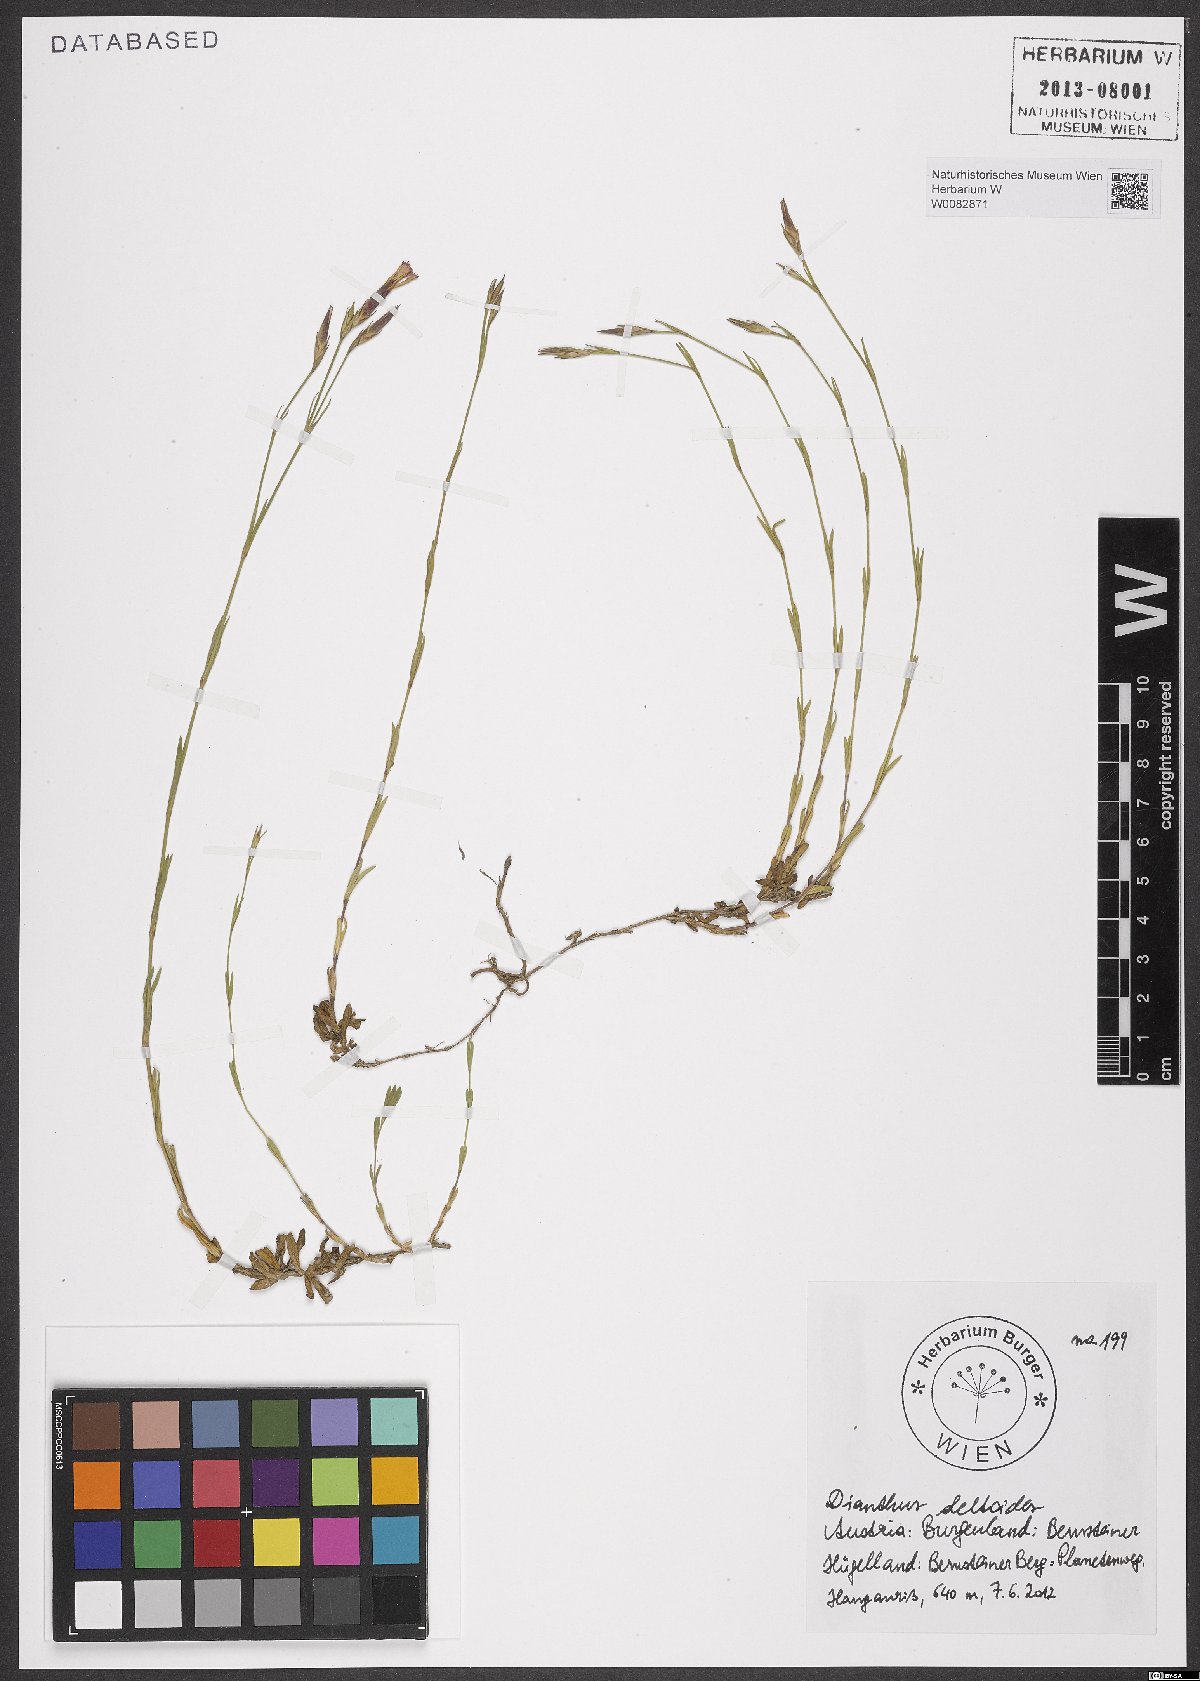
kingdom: Plantae
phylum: Tracheophyta
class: Magnoliopsida
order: Caryophyllales
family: Caryophyllaceae
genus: Dianthus
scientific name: Dianthus deltoides
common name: Maiden pink
